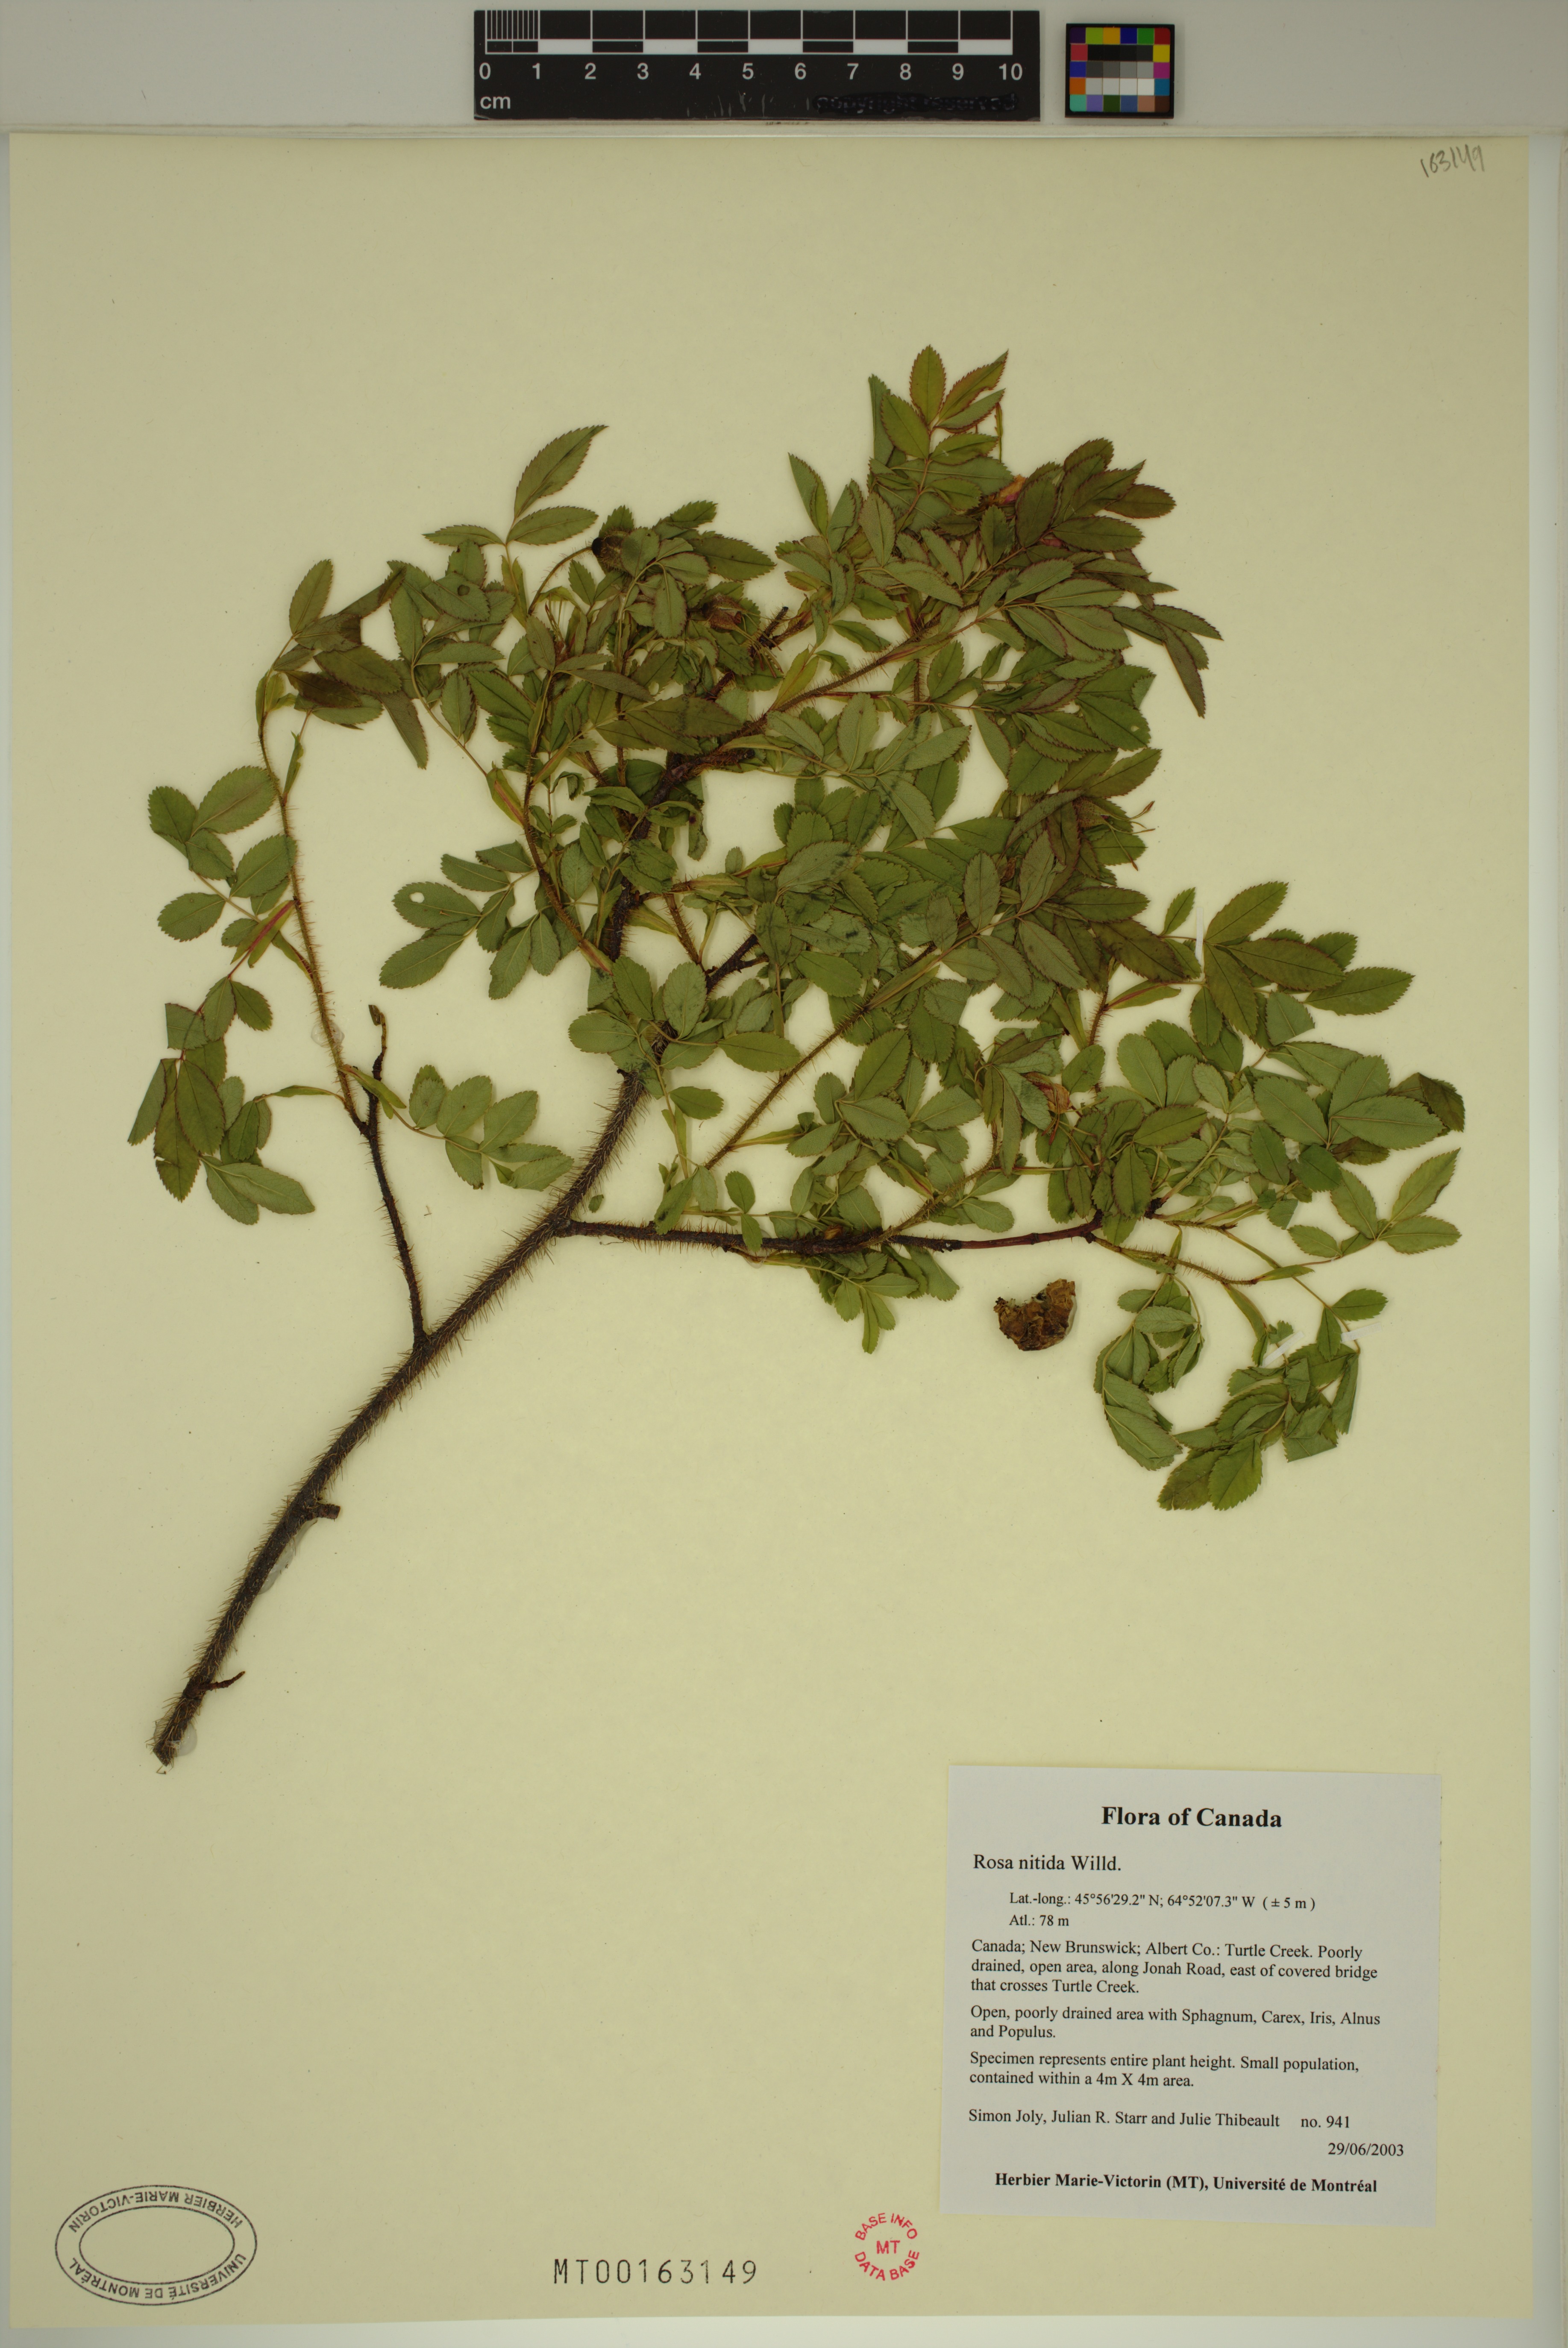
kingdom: Plantae
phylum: Tracheophyta
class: Magnoliopsida
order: Rosales
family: Rosaceae
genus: Rosa
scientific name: Rosa nitida
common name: New england rose
